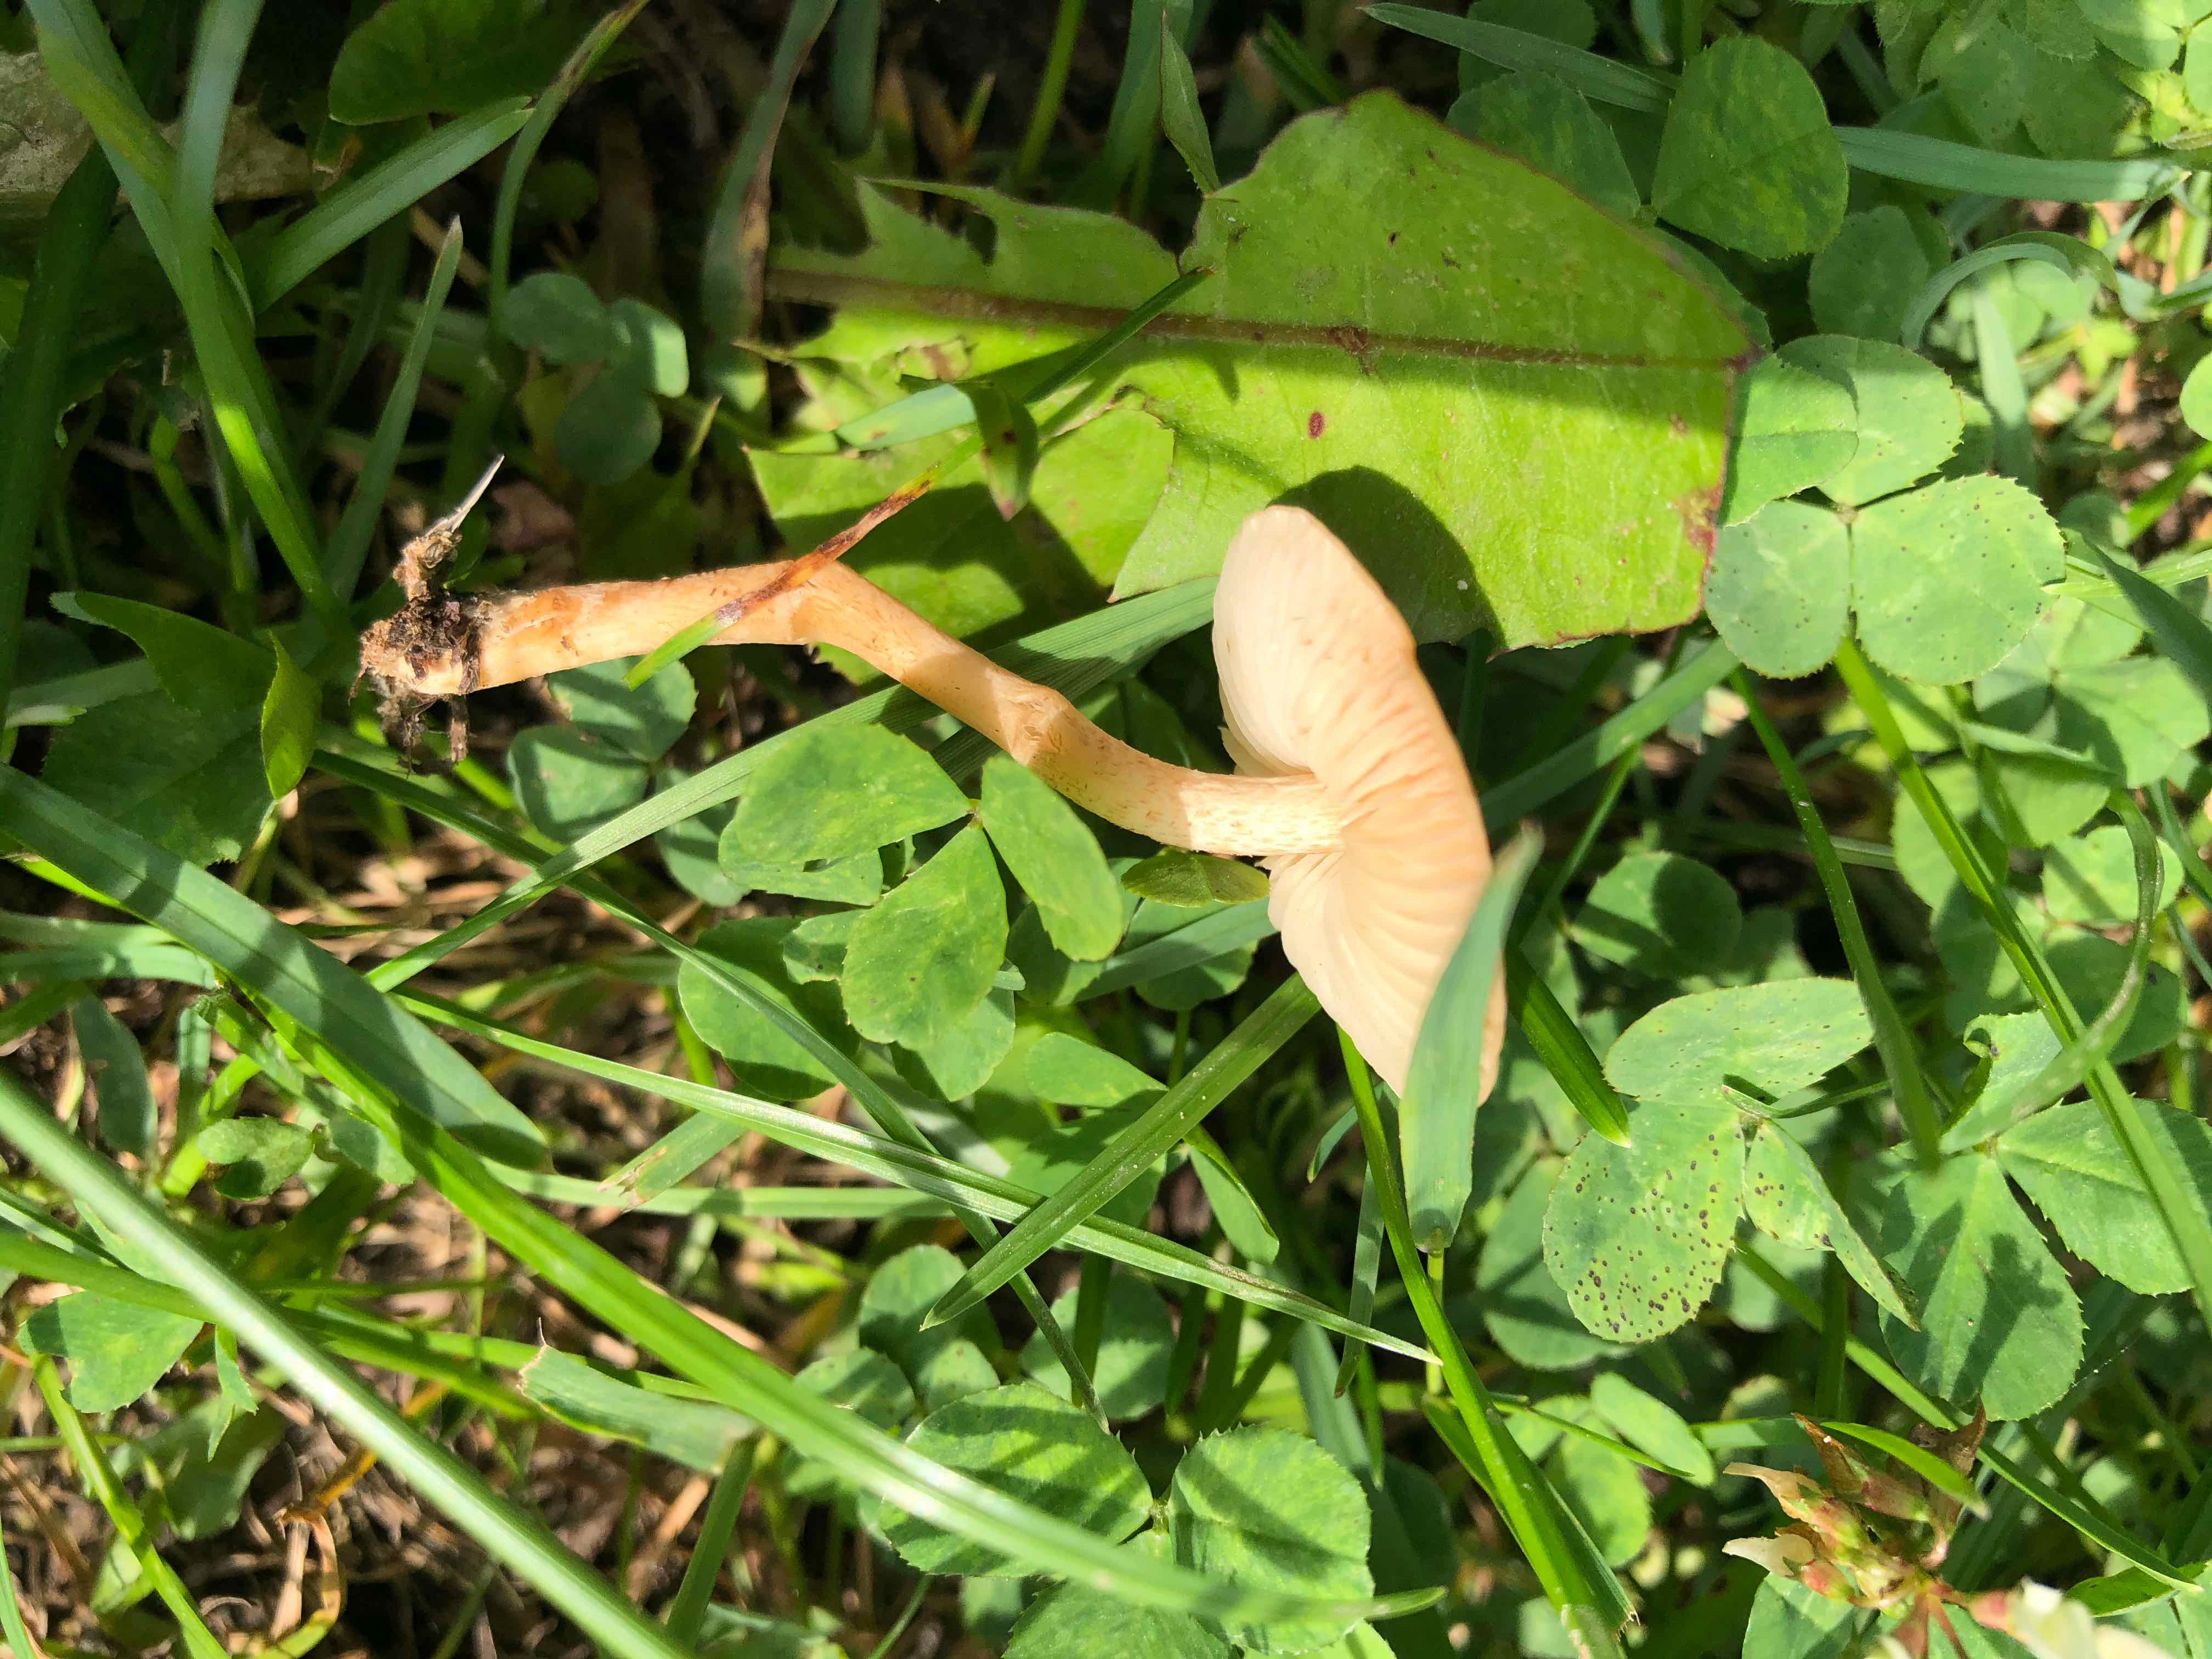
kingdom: Fungi
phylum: Basidiomycota
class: Agaricomycetes
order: Agaricales
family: Marasmiaceae
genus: Marasmius
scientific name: Marasmius oreades
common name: elledans-bruskhat
